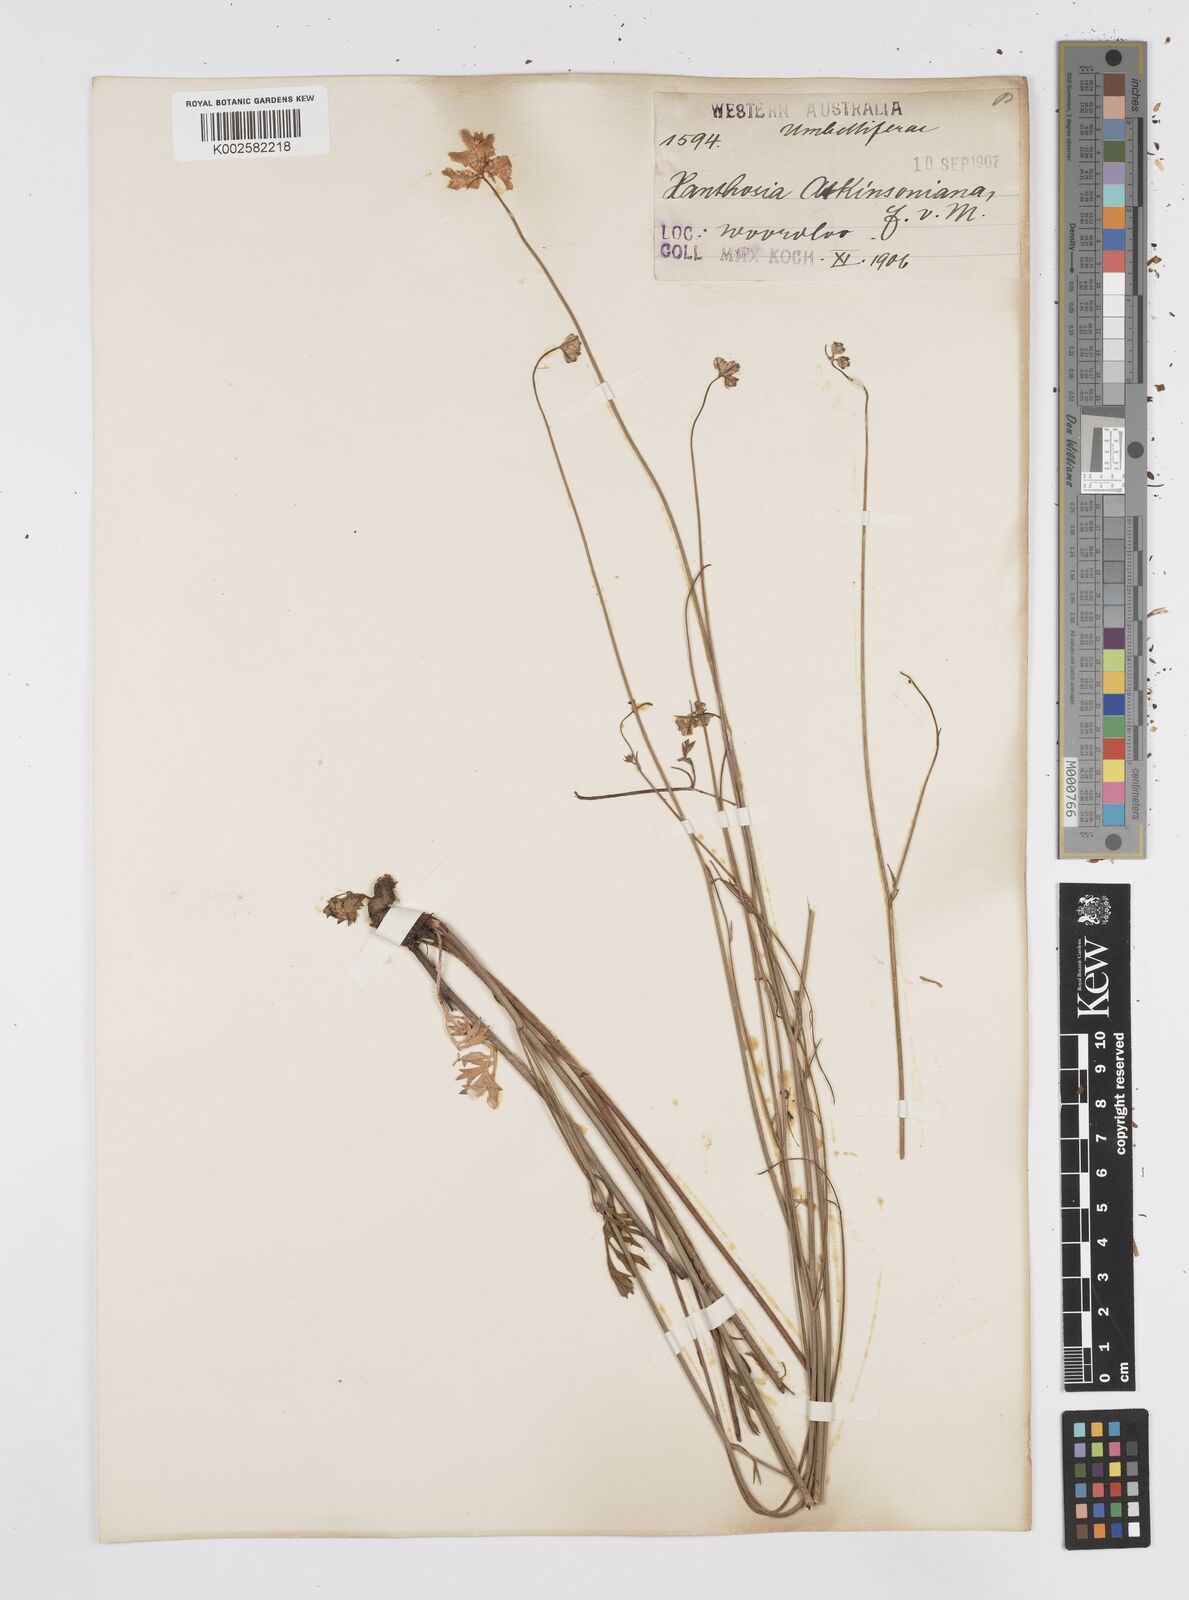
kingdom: Plantae
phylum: Tracheophyta
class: Magnoliopsida
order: Apiales
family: Apiaceae
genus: Xanthosia
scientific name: Xanthosia atkinsoniana
